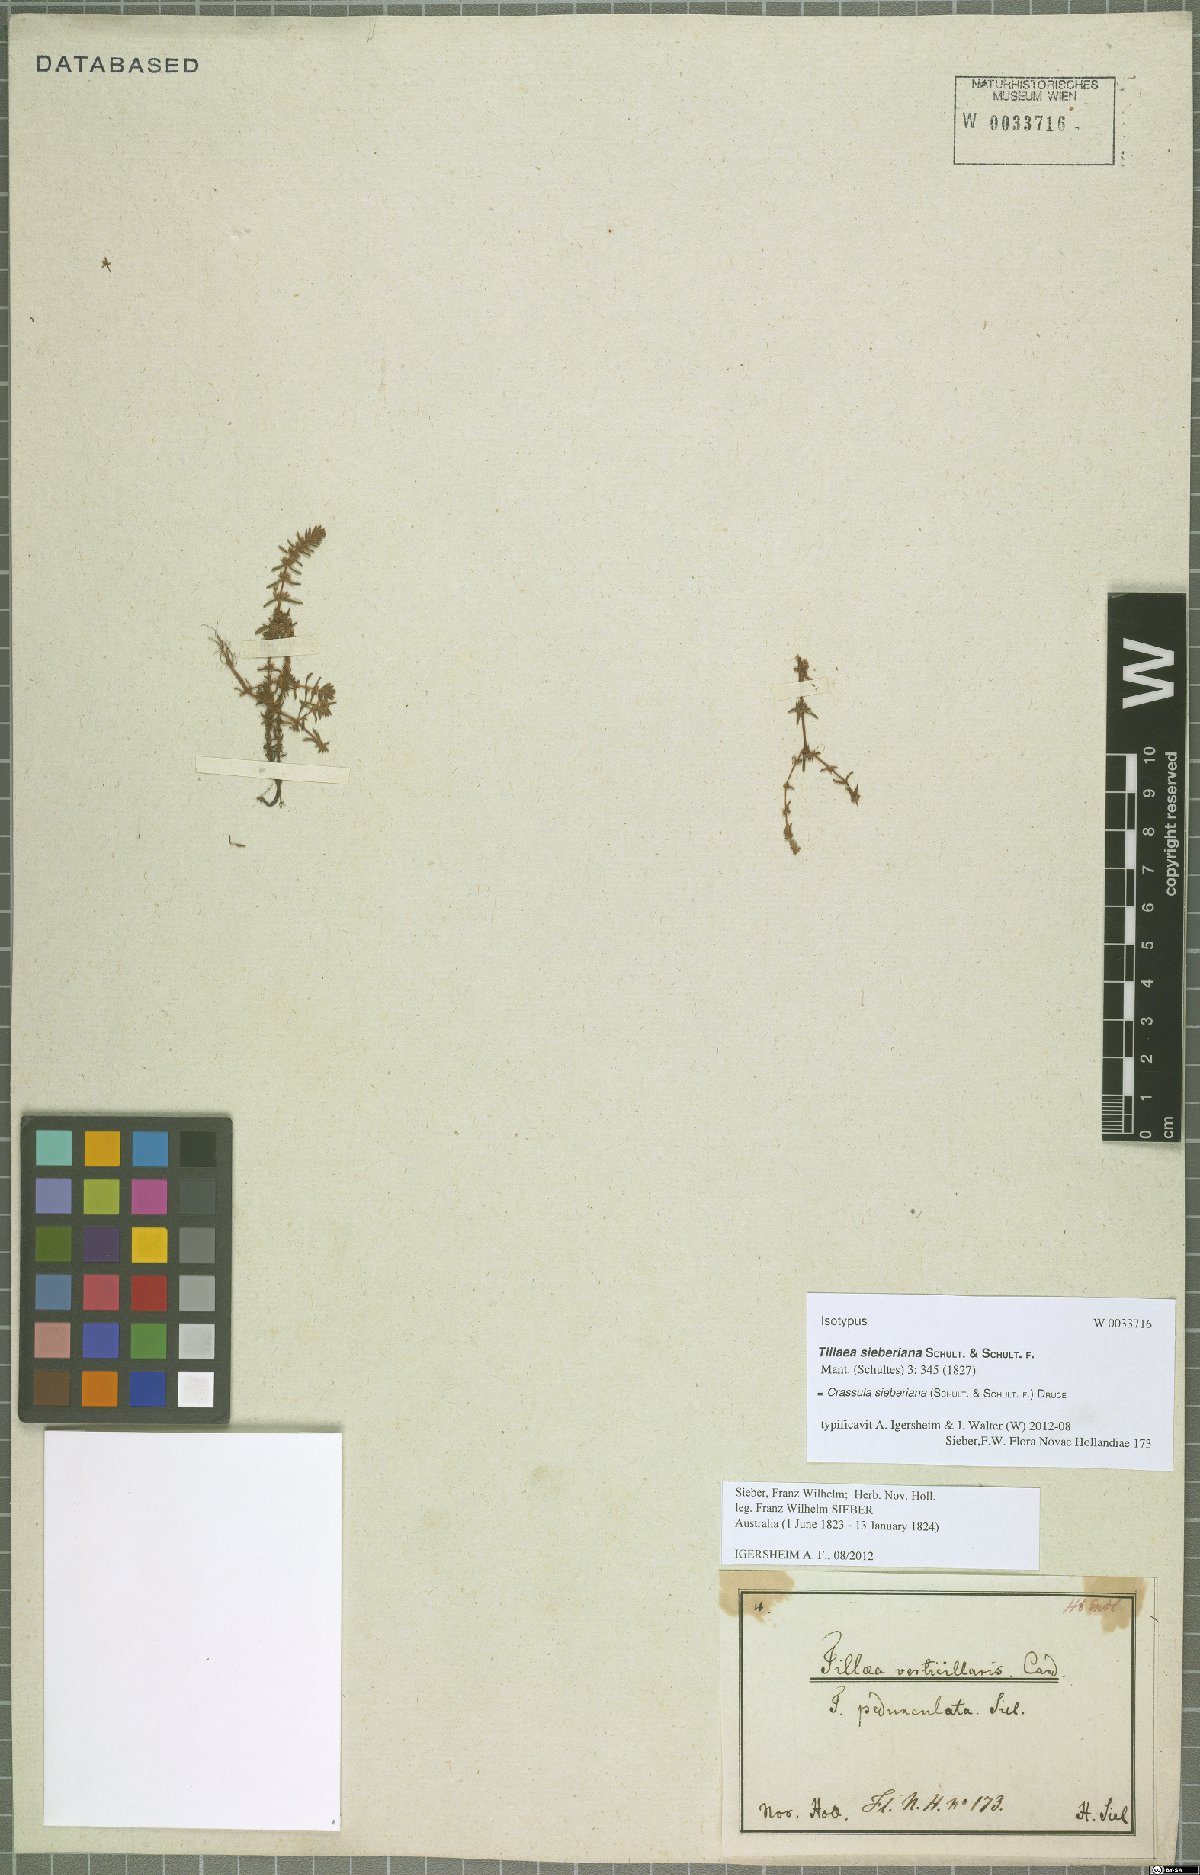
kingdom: Plantae
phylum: Tracheophyta
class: Magnoliopsida
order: Saxifragales
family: Crassulaceae
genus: Crassula
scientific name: Crassula sieberiana
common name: Siberian pygmyweed
